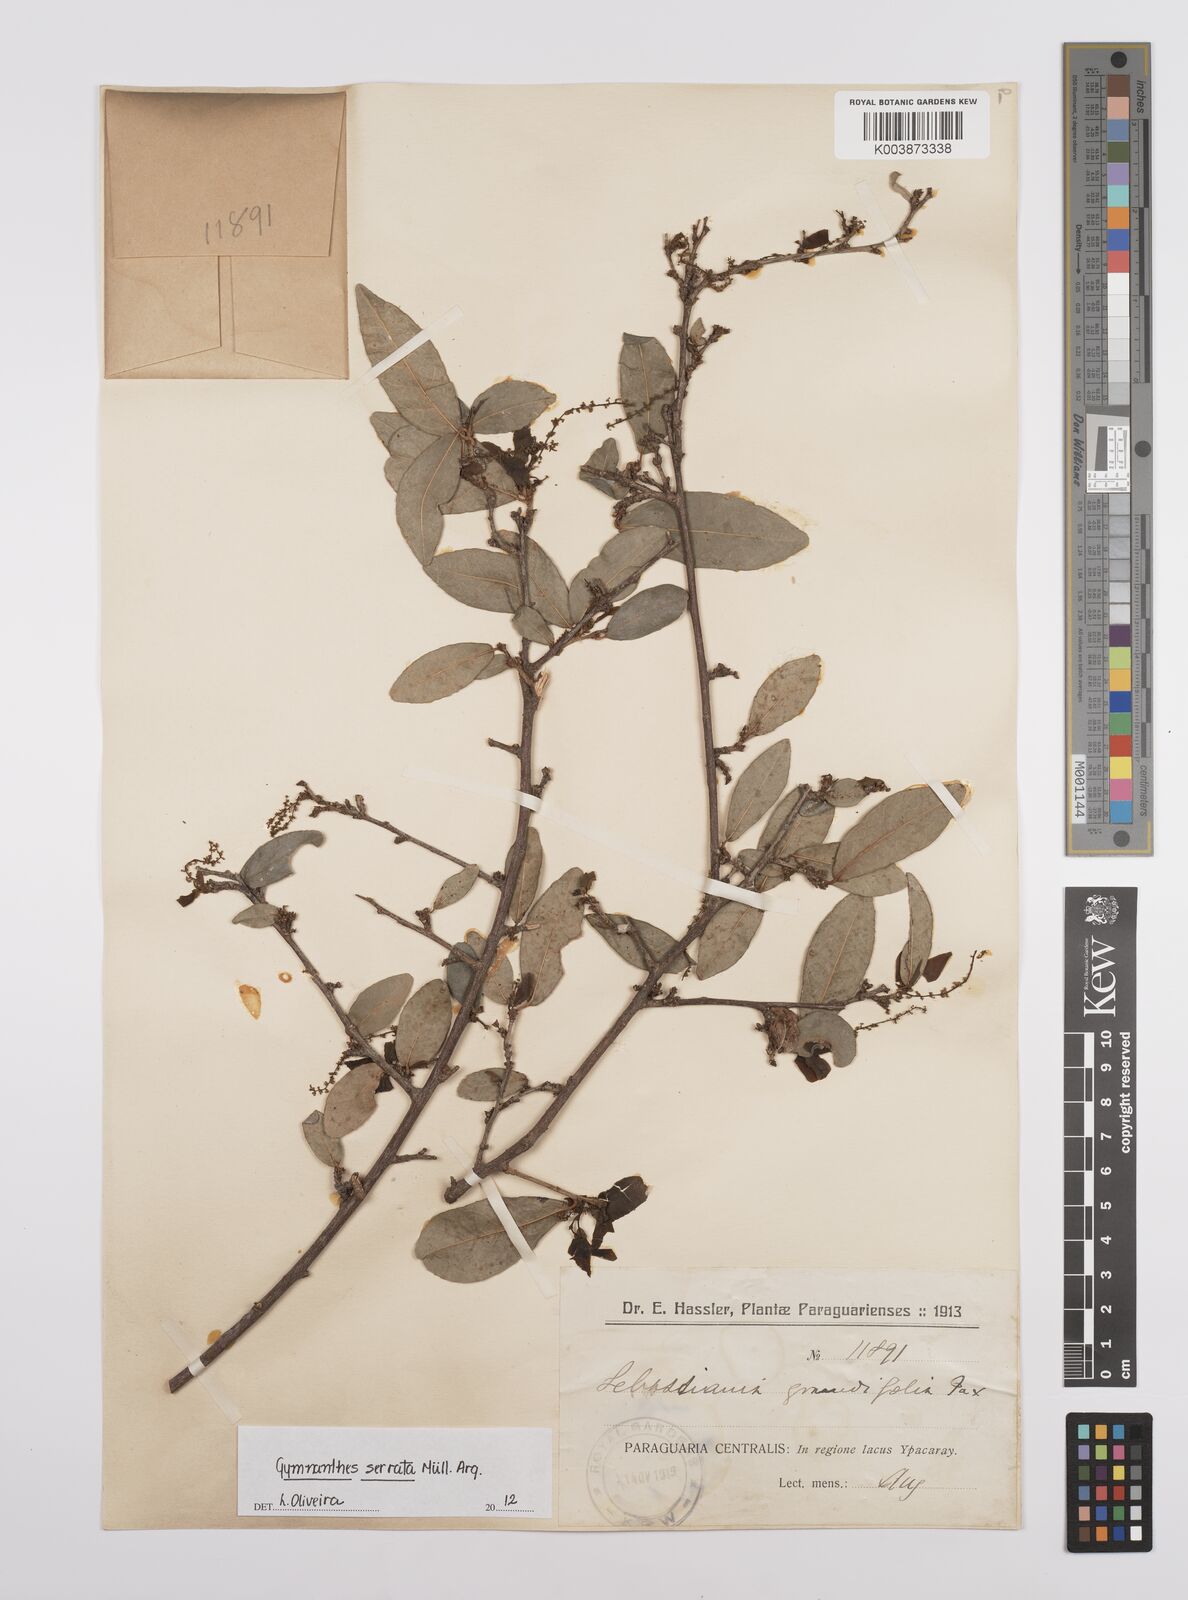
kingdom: Plantae
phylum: Tracheophyta
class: Magnoliopsida
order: Malpighiales
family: Euphorbiaceae
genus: Sebastiania
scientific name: Sebastiania serrata
